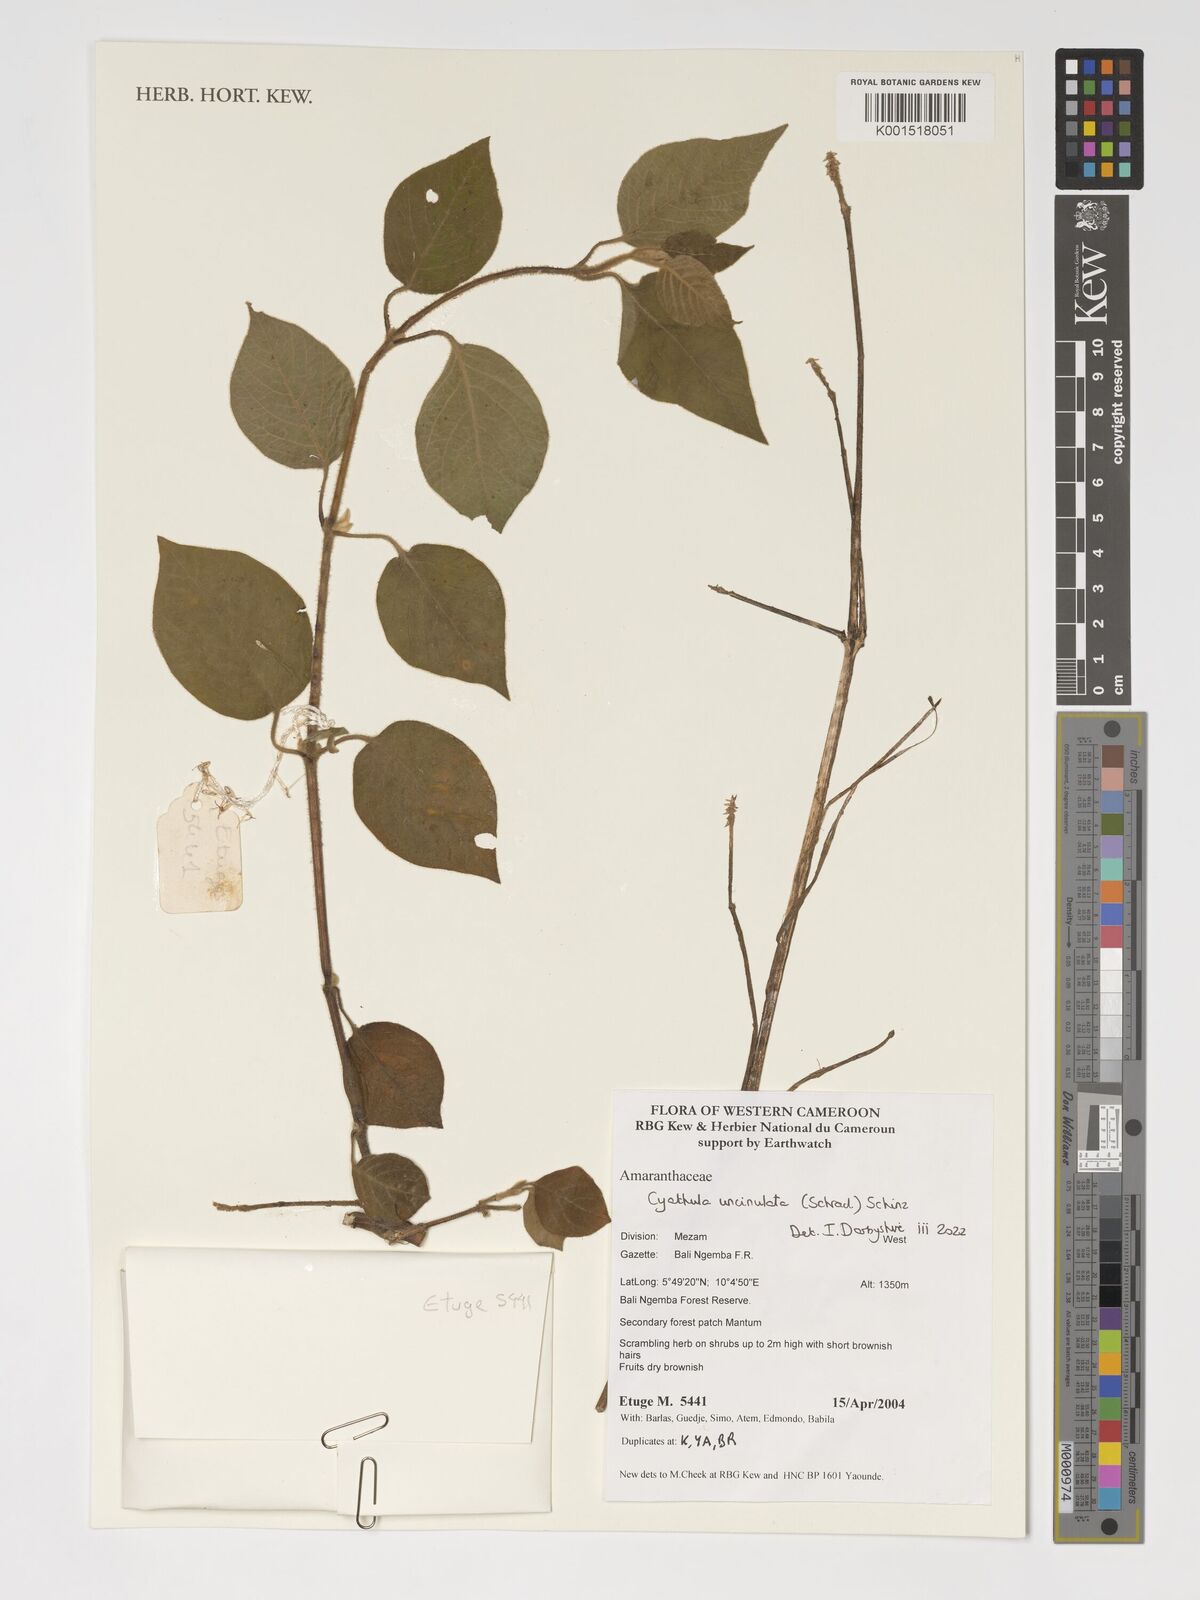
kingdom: Plantae
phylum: Tracheophyta
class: Magnoliopsida
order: Caryophyllales
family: Amaranthaceae
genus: Cyathula
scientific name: Cyathula uncinulata
